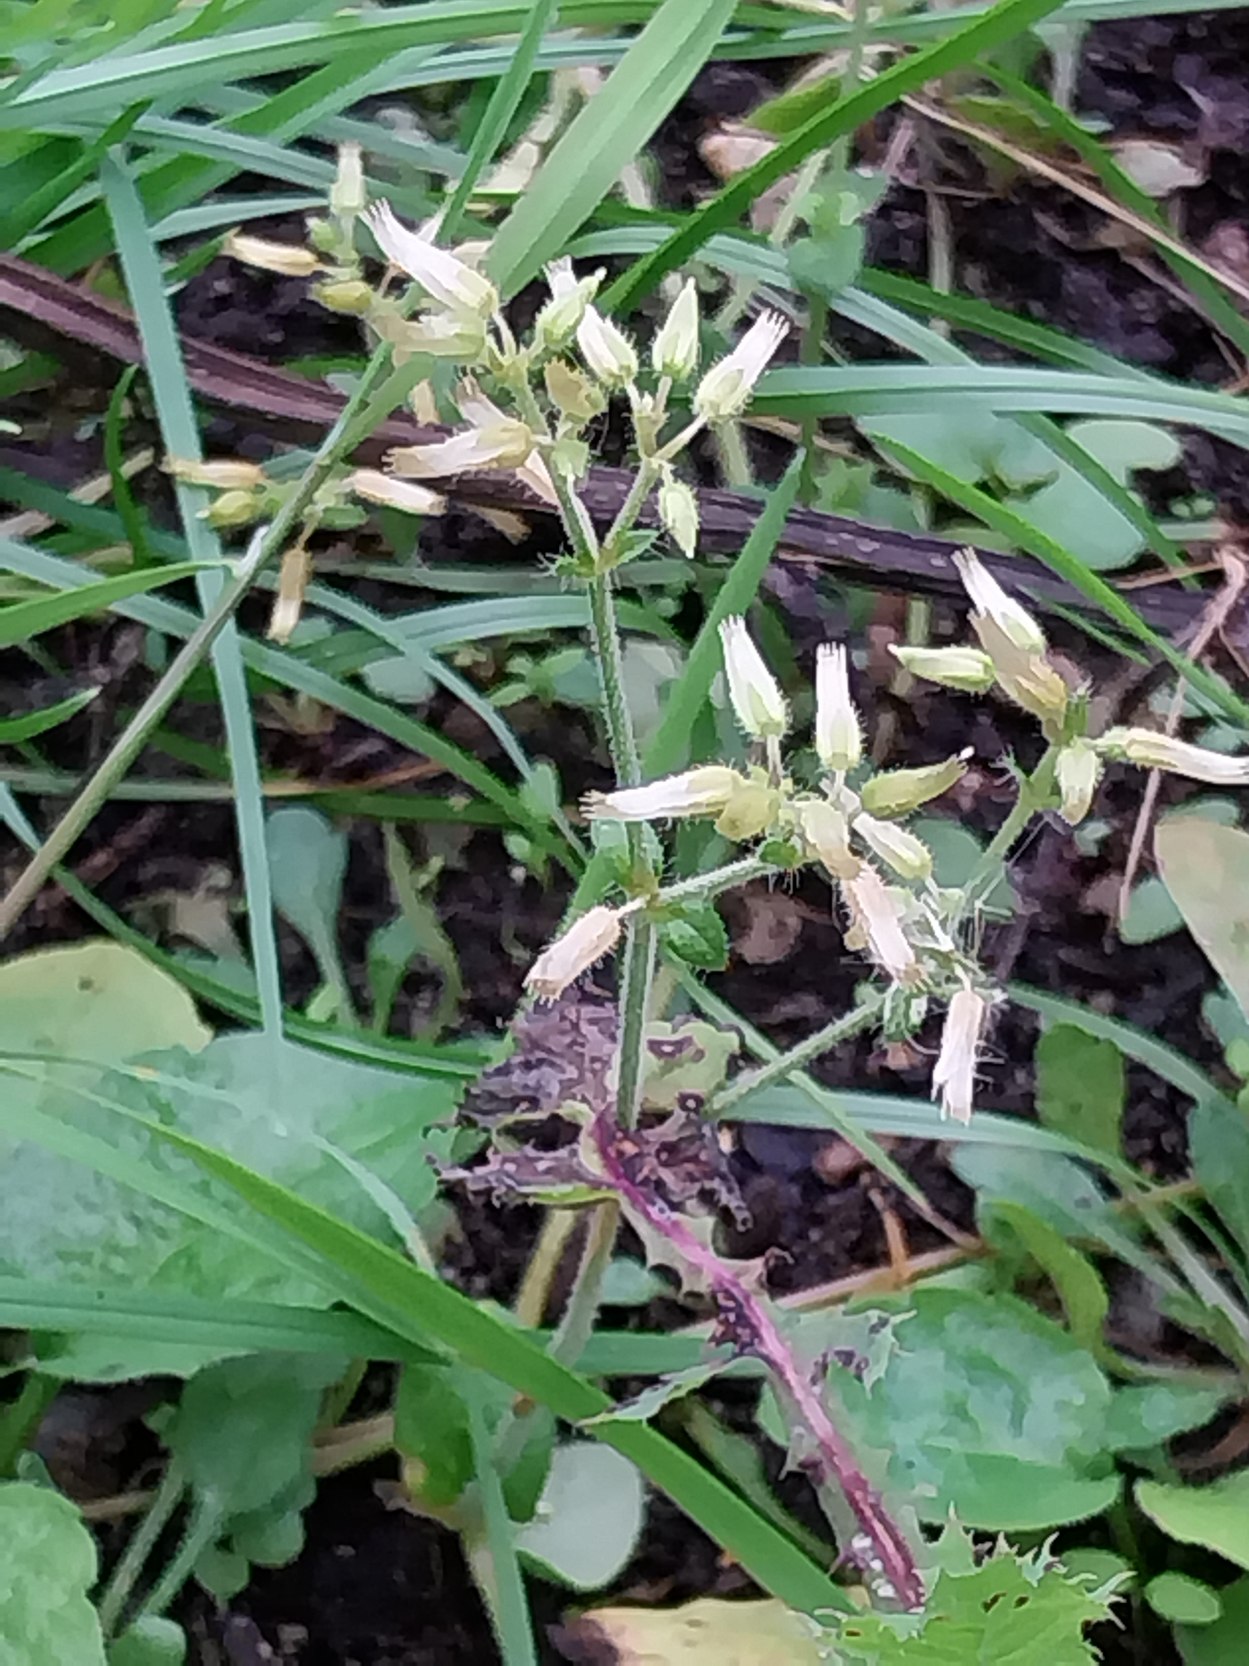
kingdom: Plantae
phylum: Tracheophyta
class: Magnoliopsida
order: Caryophyllales
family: Caryophyllaceae
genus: Cerastium
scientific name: Cerastium fontanum
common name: Almindelig hønsetarm
